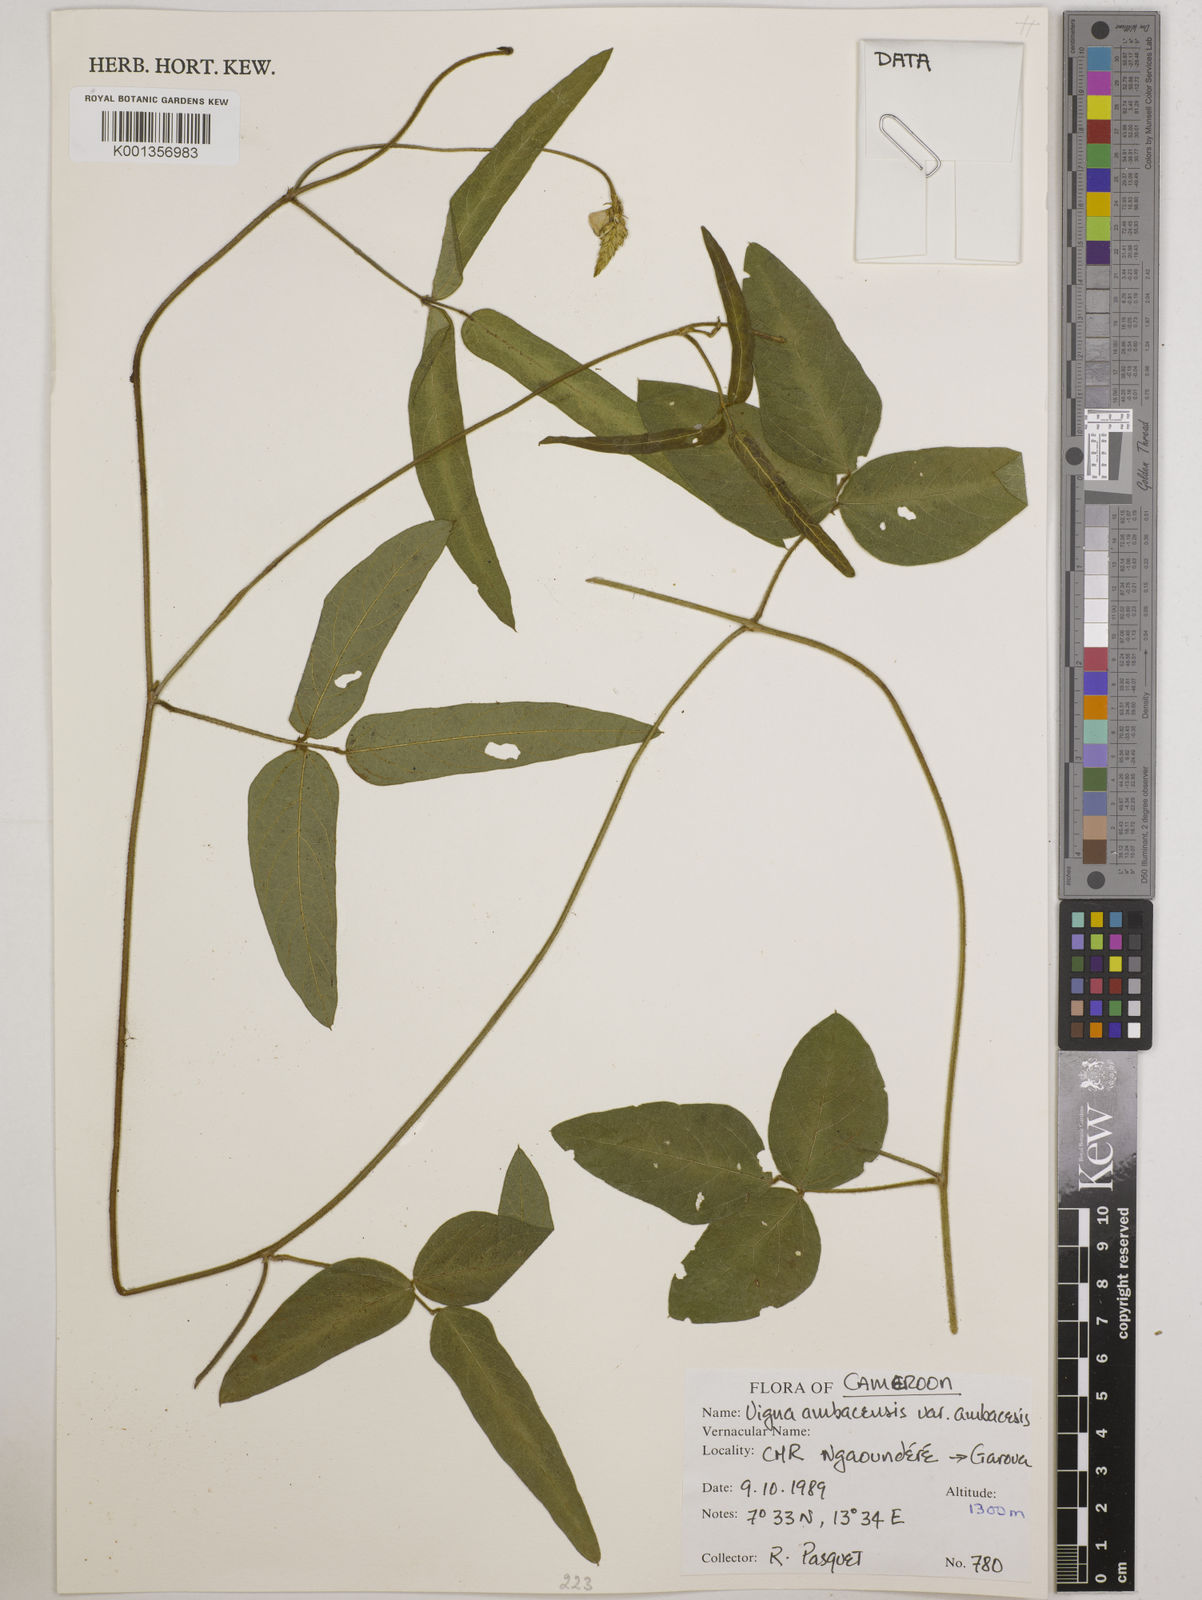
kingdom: Plantae
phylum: Tracheophyta
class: Magnoliopsida
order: Fabales
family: Fabaceae
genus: Vigna
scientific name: Vigna
